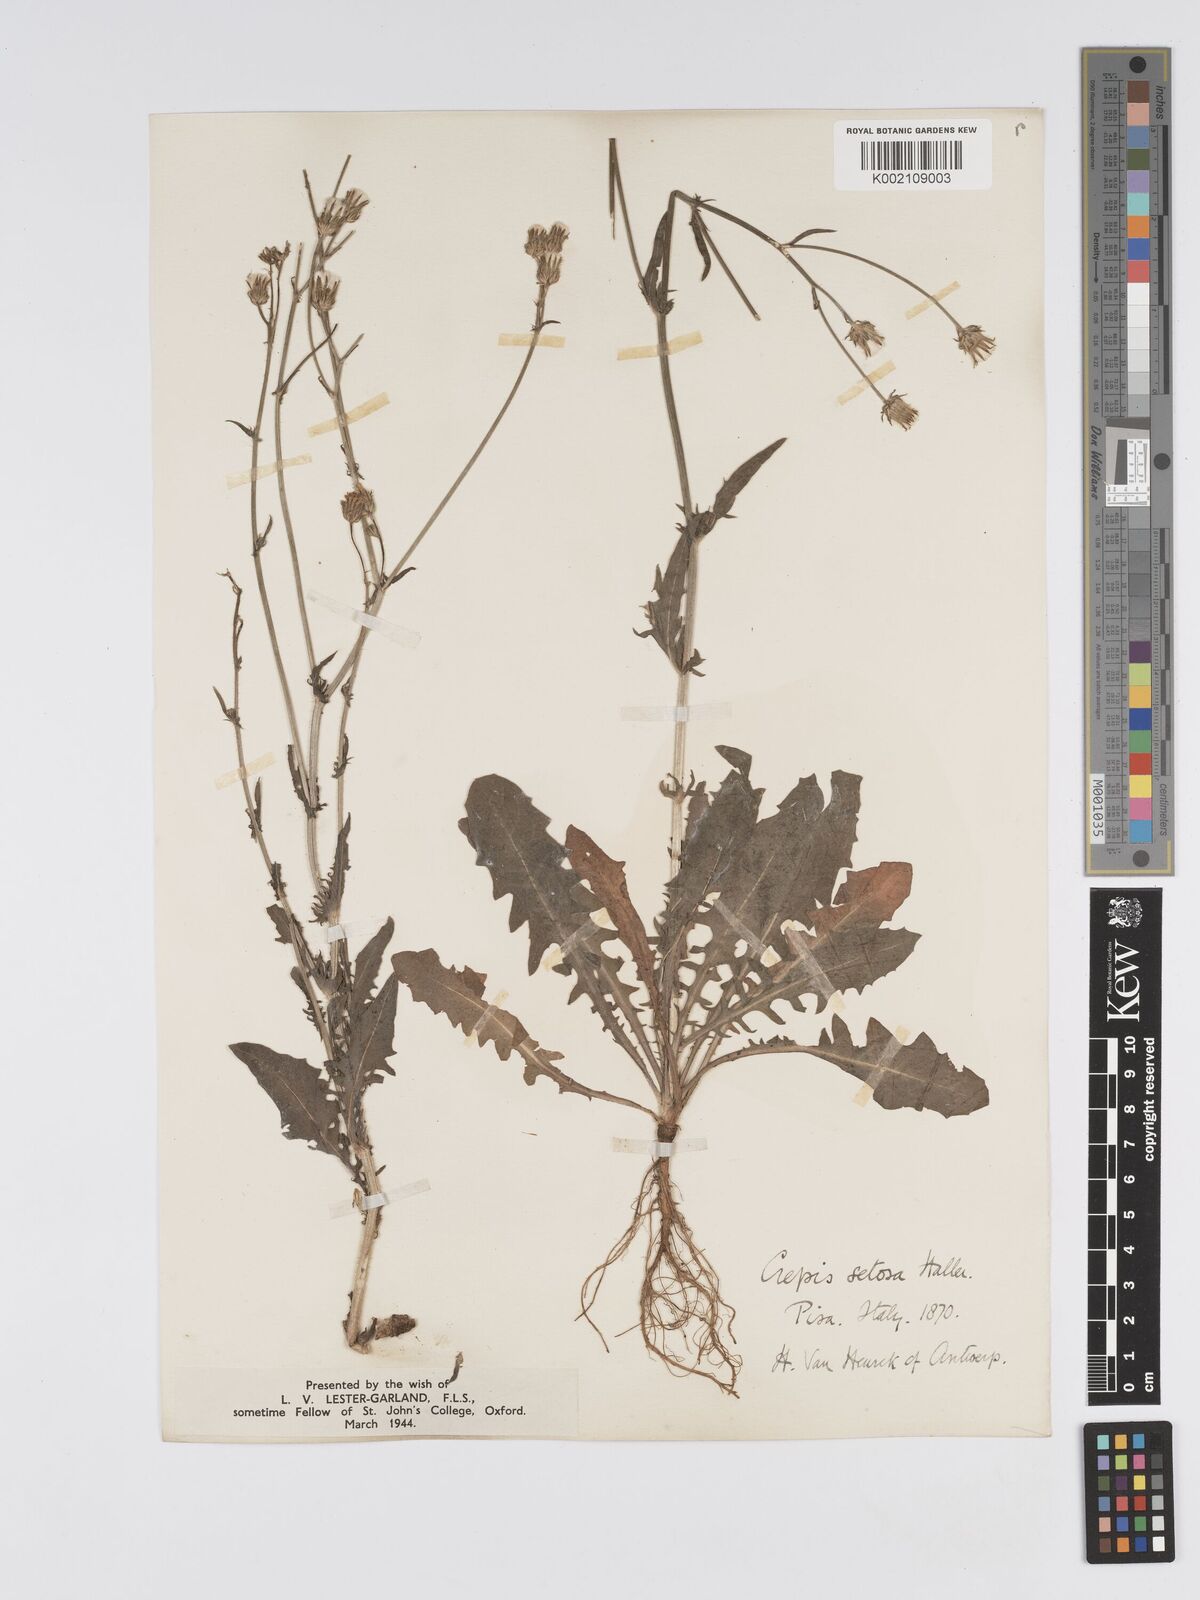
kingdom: Plantae
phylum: Tracheophyta
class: Magnoliopsida
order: Asterales
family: Asteraceae
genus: Crepis
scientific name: Crepis setosa
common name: Bristly hawk's-beard
